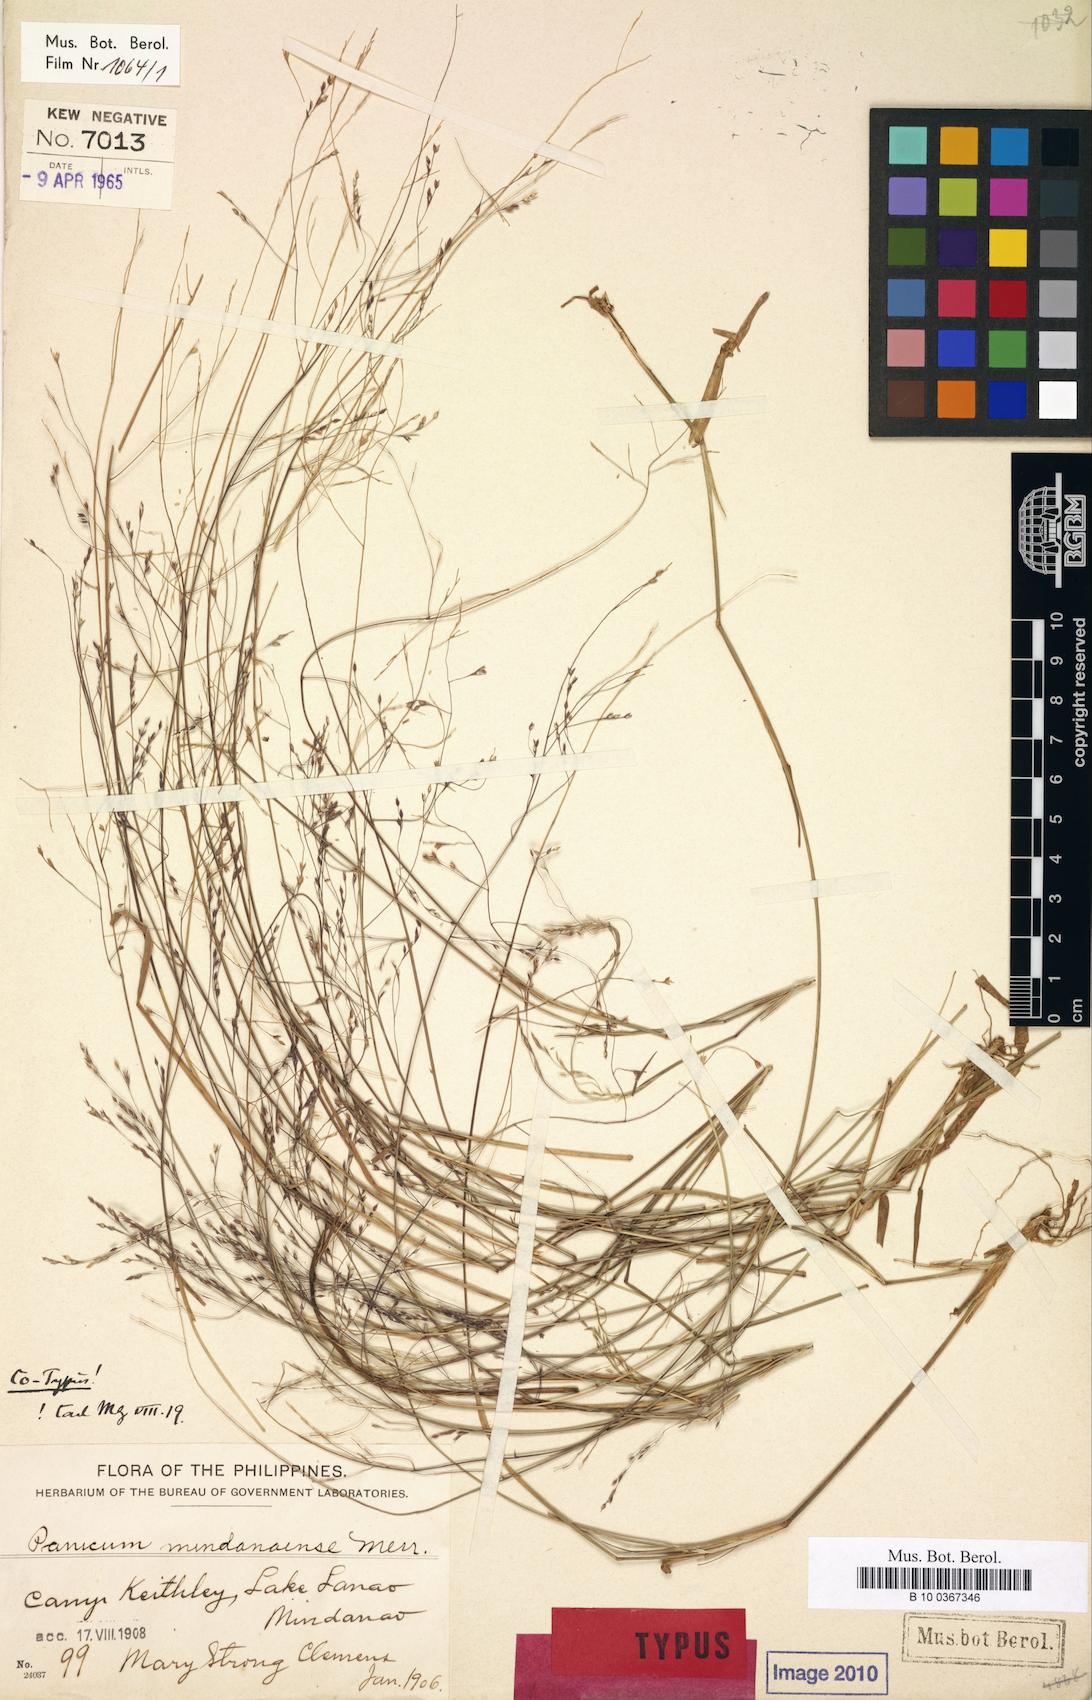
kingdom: Plantae
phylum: Tracheophyta
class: Liliopsida
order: Poales
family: Poaceae
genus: Panicum
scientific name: Panicum mindanaense
